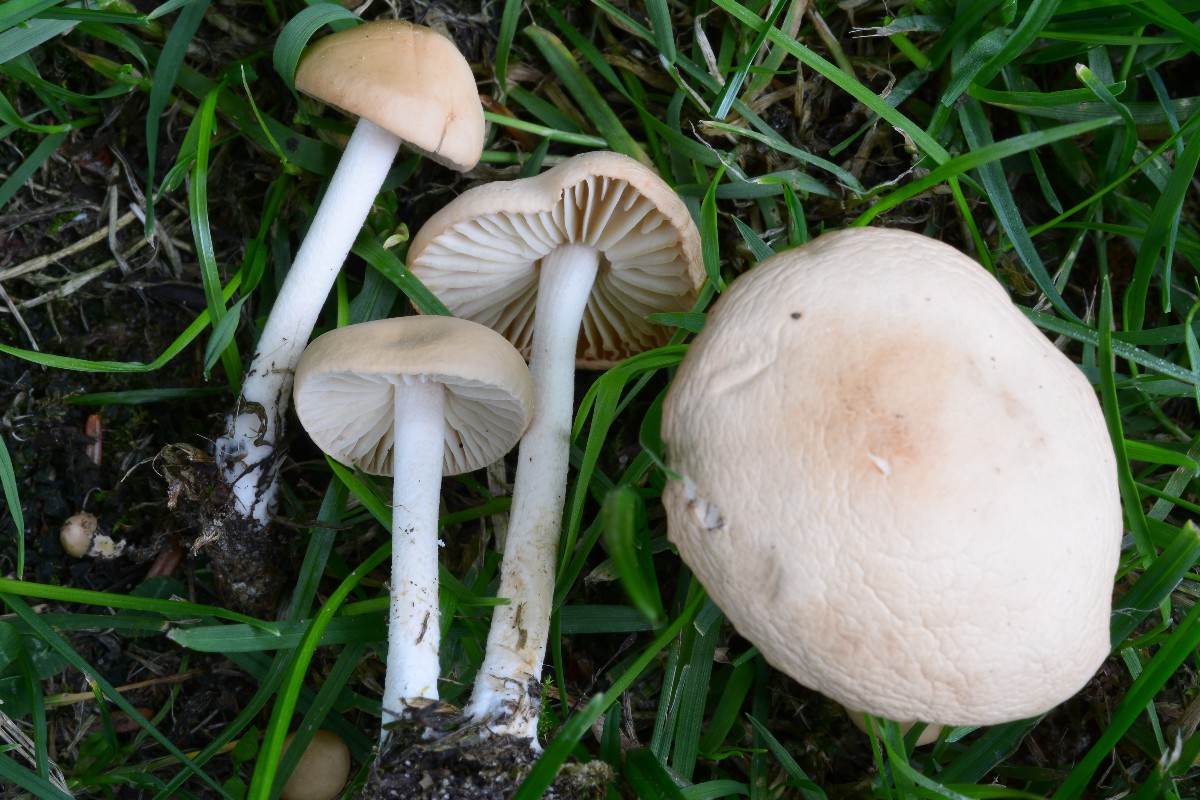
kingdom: Fungi
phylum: Basidiomycota
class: Agaricomycetes
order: Agaricales
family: Marasmiaceae
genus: Marasmius
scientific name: Marasmius oreades
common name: elledans-bruskhat
